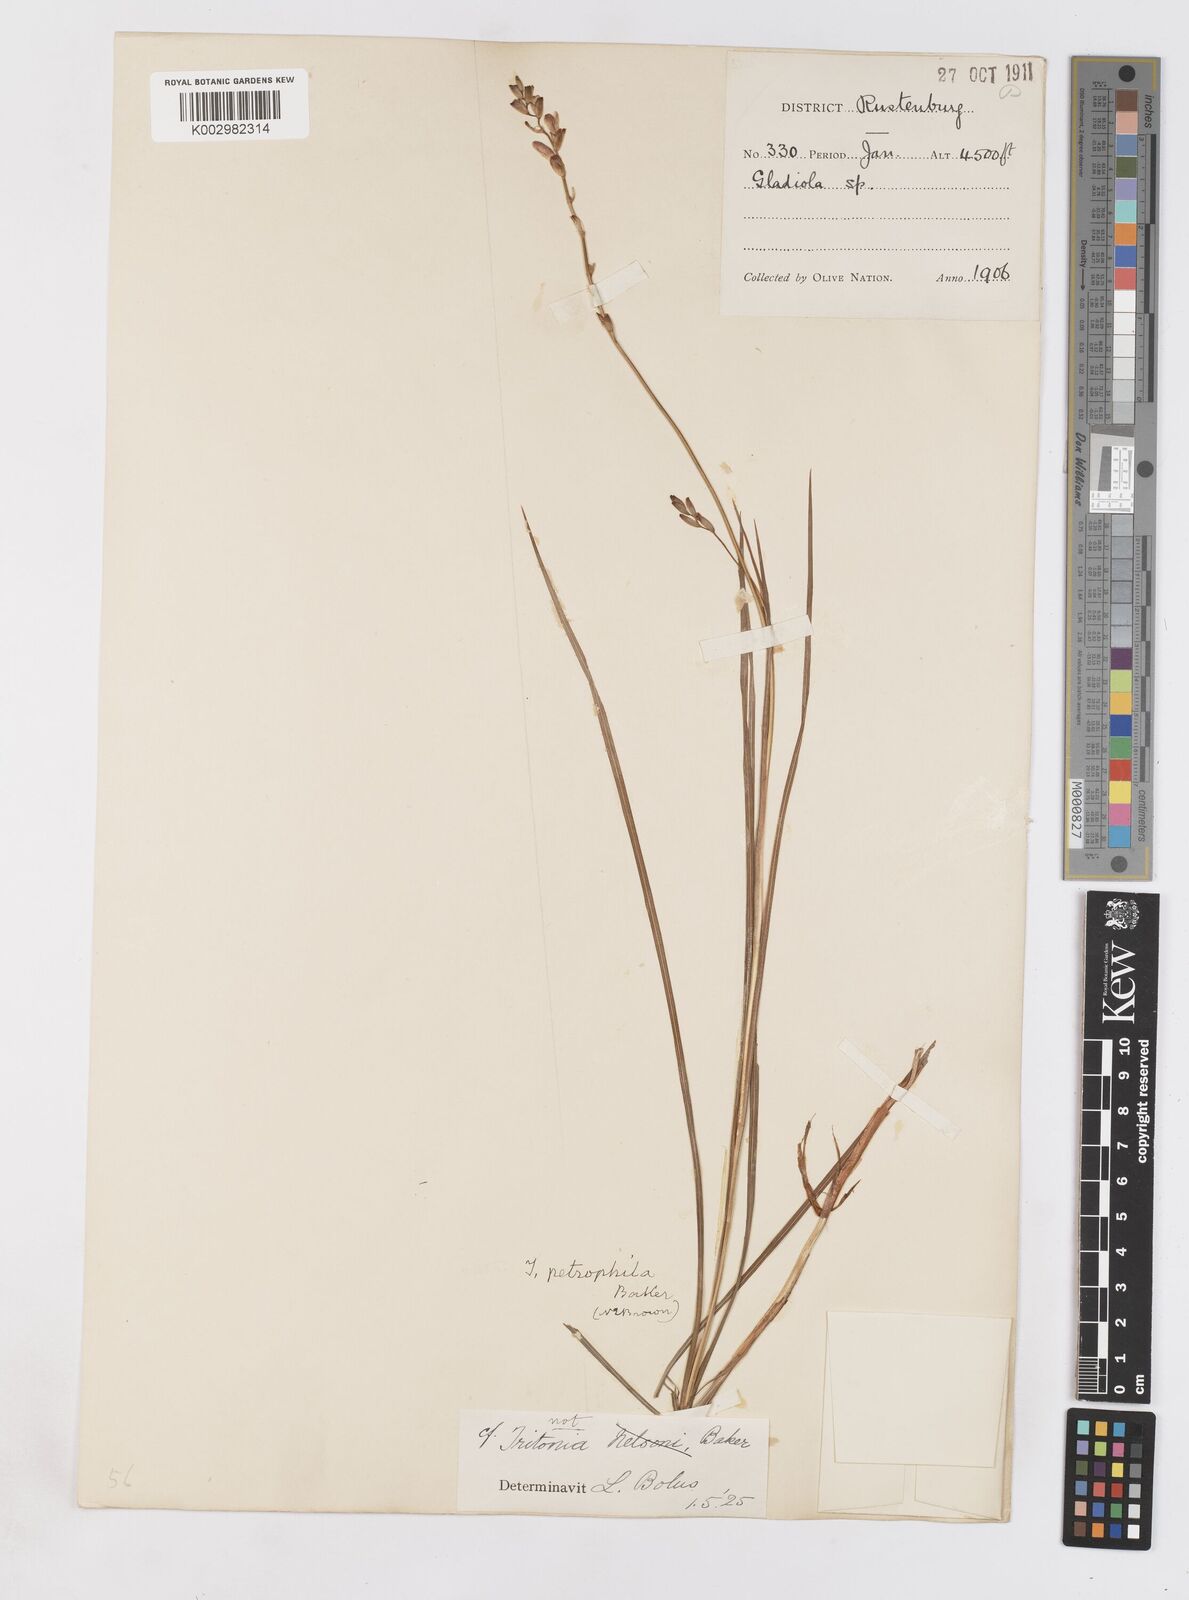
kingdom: Plantae
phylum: Tracheophyta
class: Liliopsida
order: Asparagales
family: Iridaceae
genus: Tritonia
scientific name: Tritonia nelsonii
